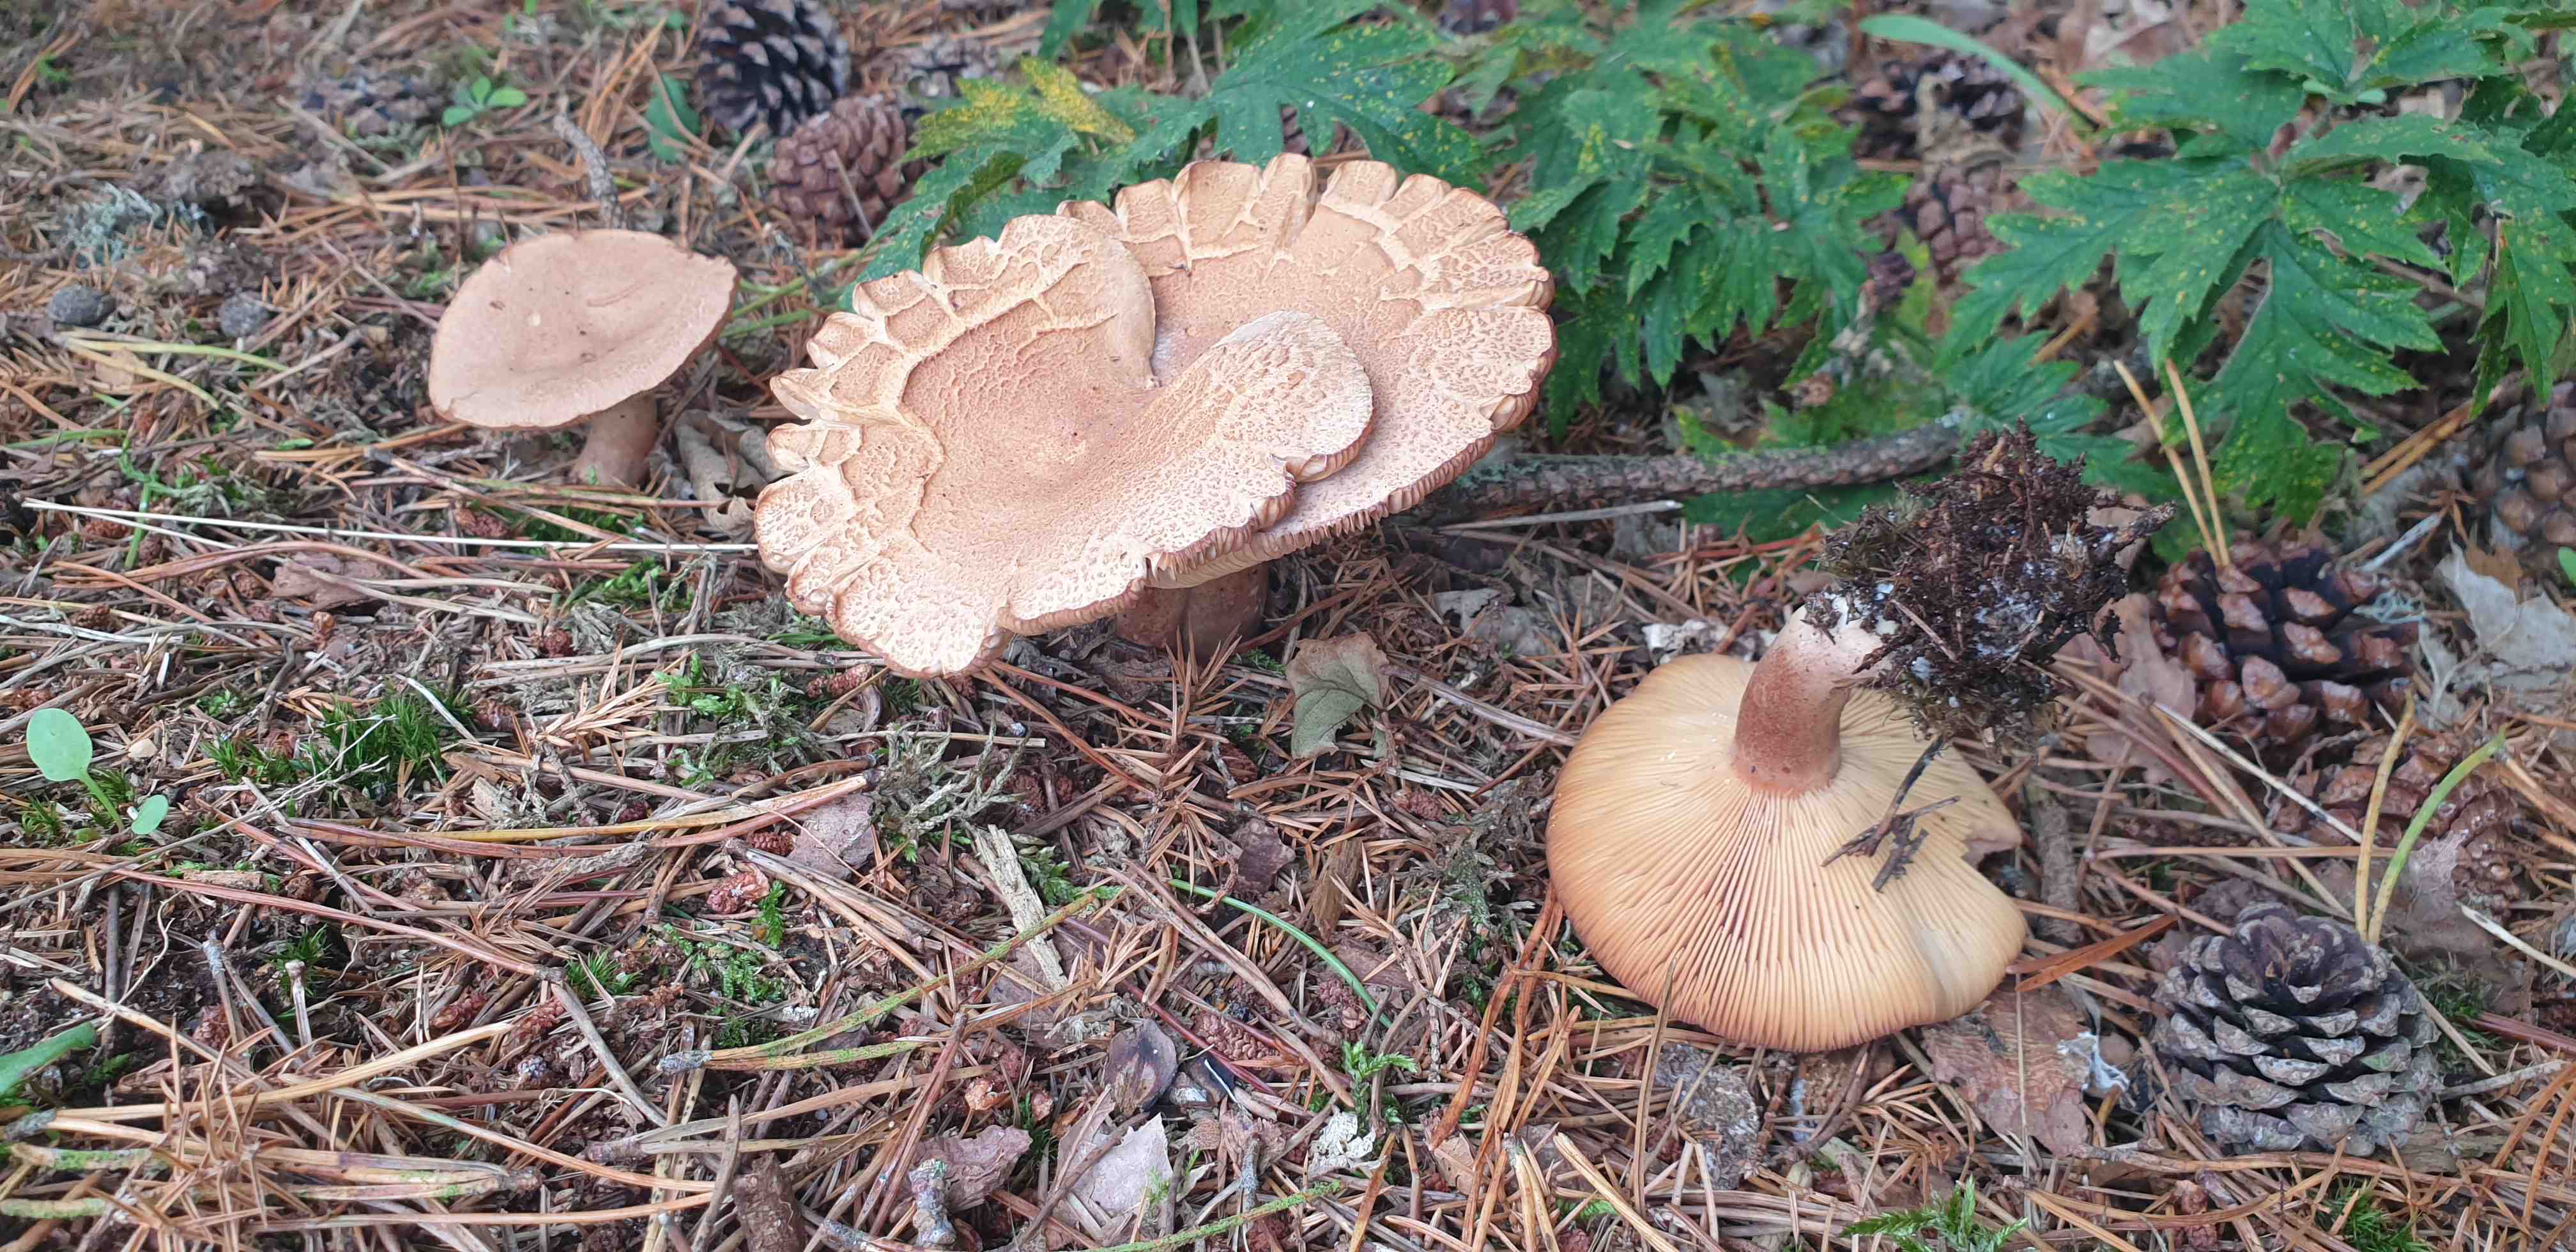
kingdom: Fungi
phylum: Basidiomycota
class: Agaricomycetes
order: Russulales
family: Russulaceae
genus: Lactarius
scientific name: Lactarius helvus
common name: mose-mælkehat
